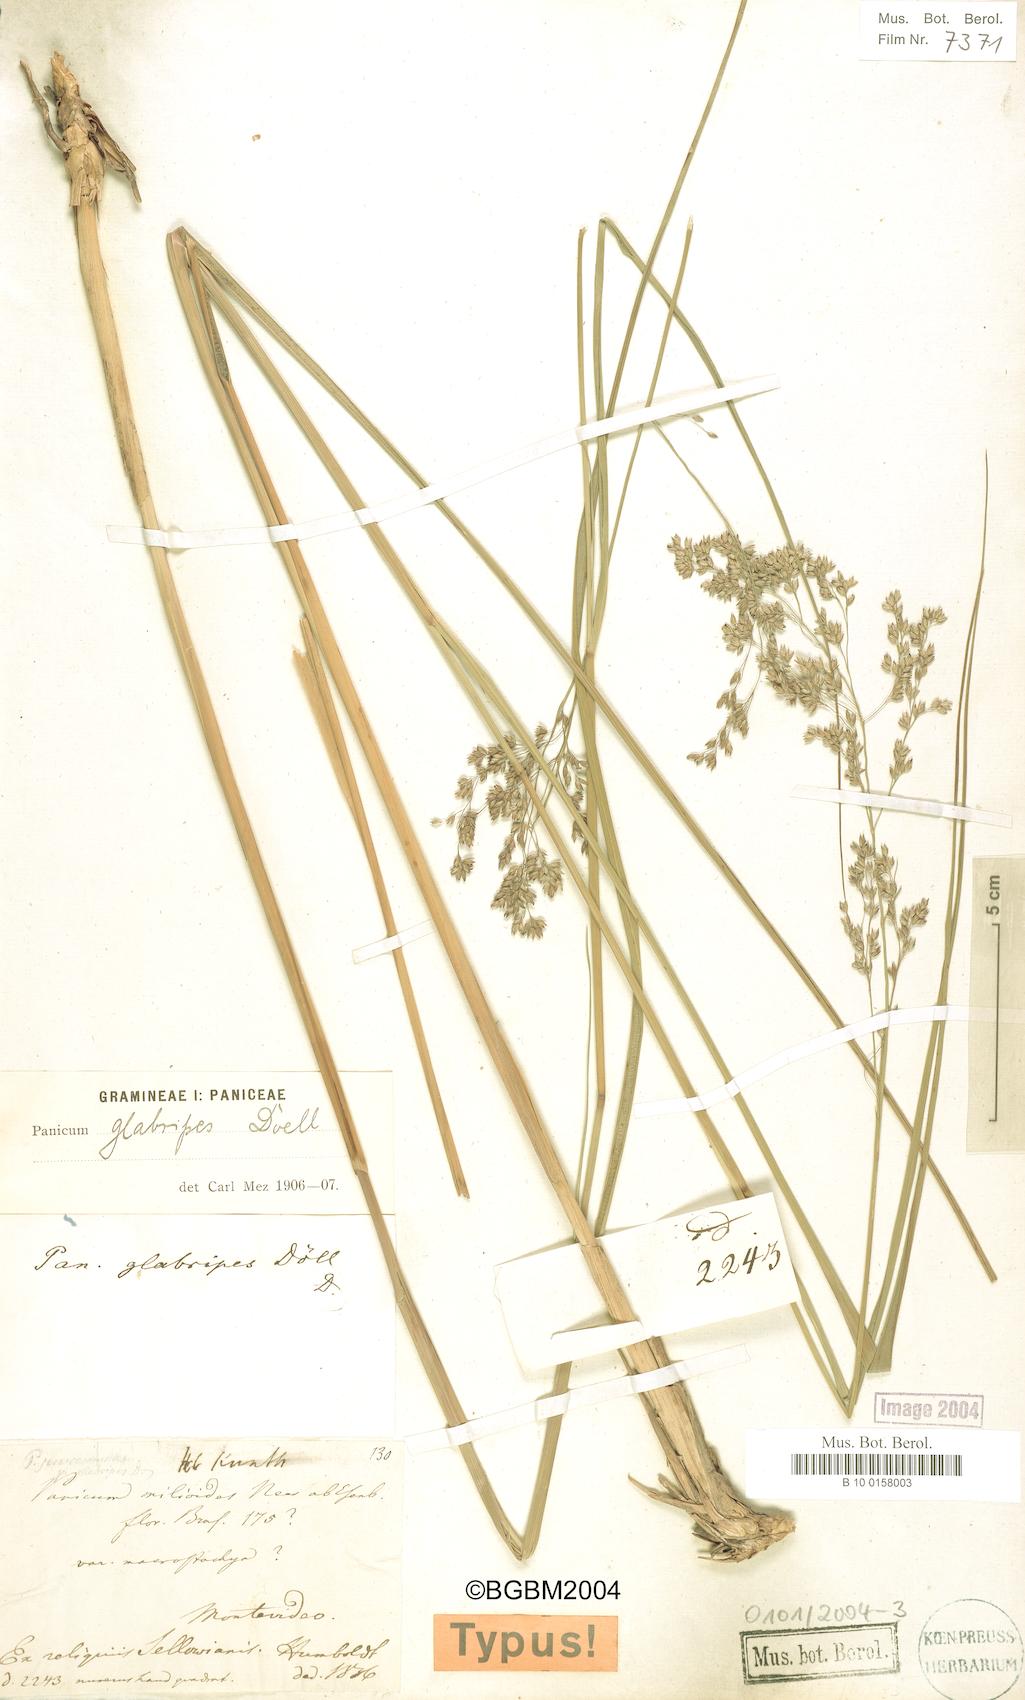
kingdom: Plantae
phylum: Tracheophyta
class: Liliopsida
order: Poales
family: Poaceae
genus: Panicum
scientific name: Panicum glabripes
